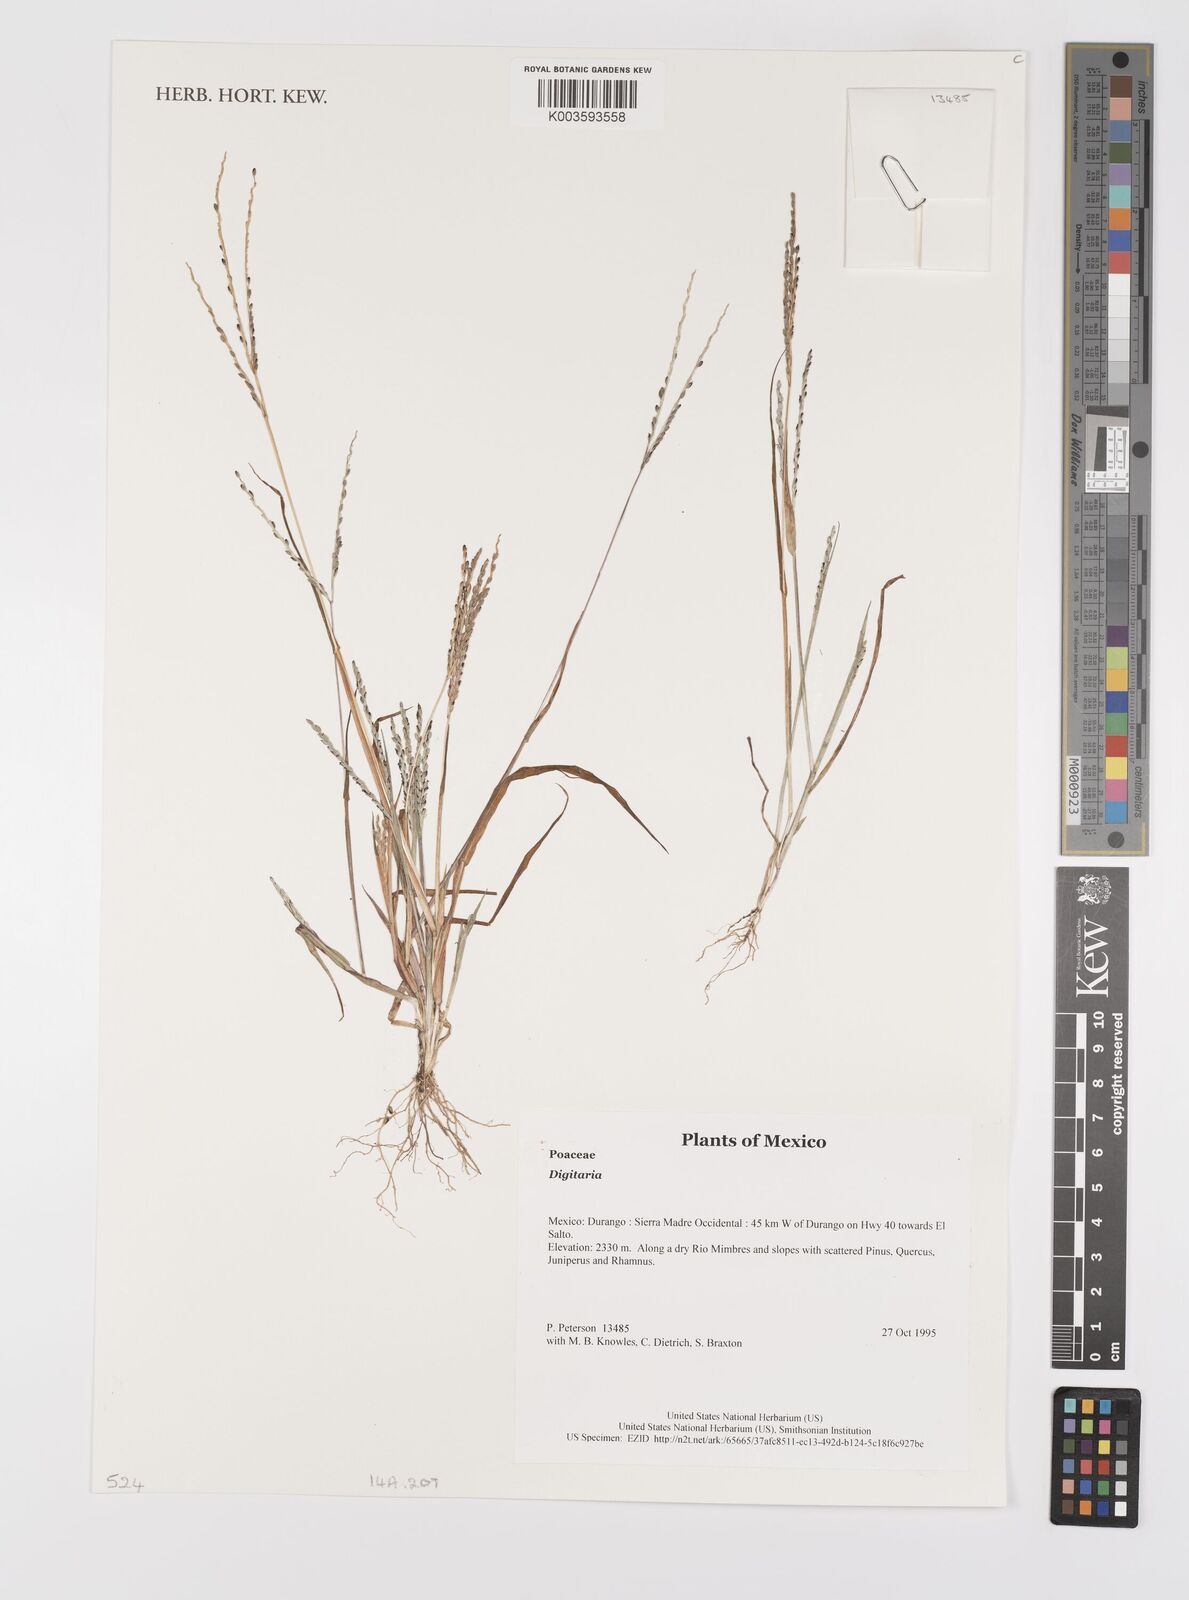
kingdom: Plantae
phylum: Tracheophyta
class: Liliopsida
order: Poales
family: Poaceae
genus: Digitaria
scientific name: Digitaria spec
